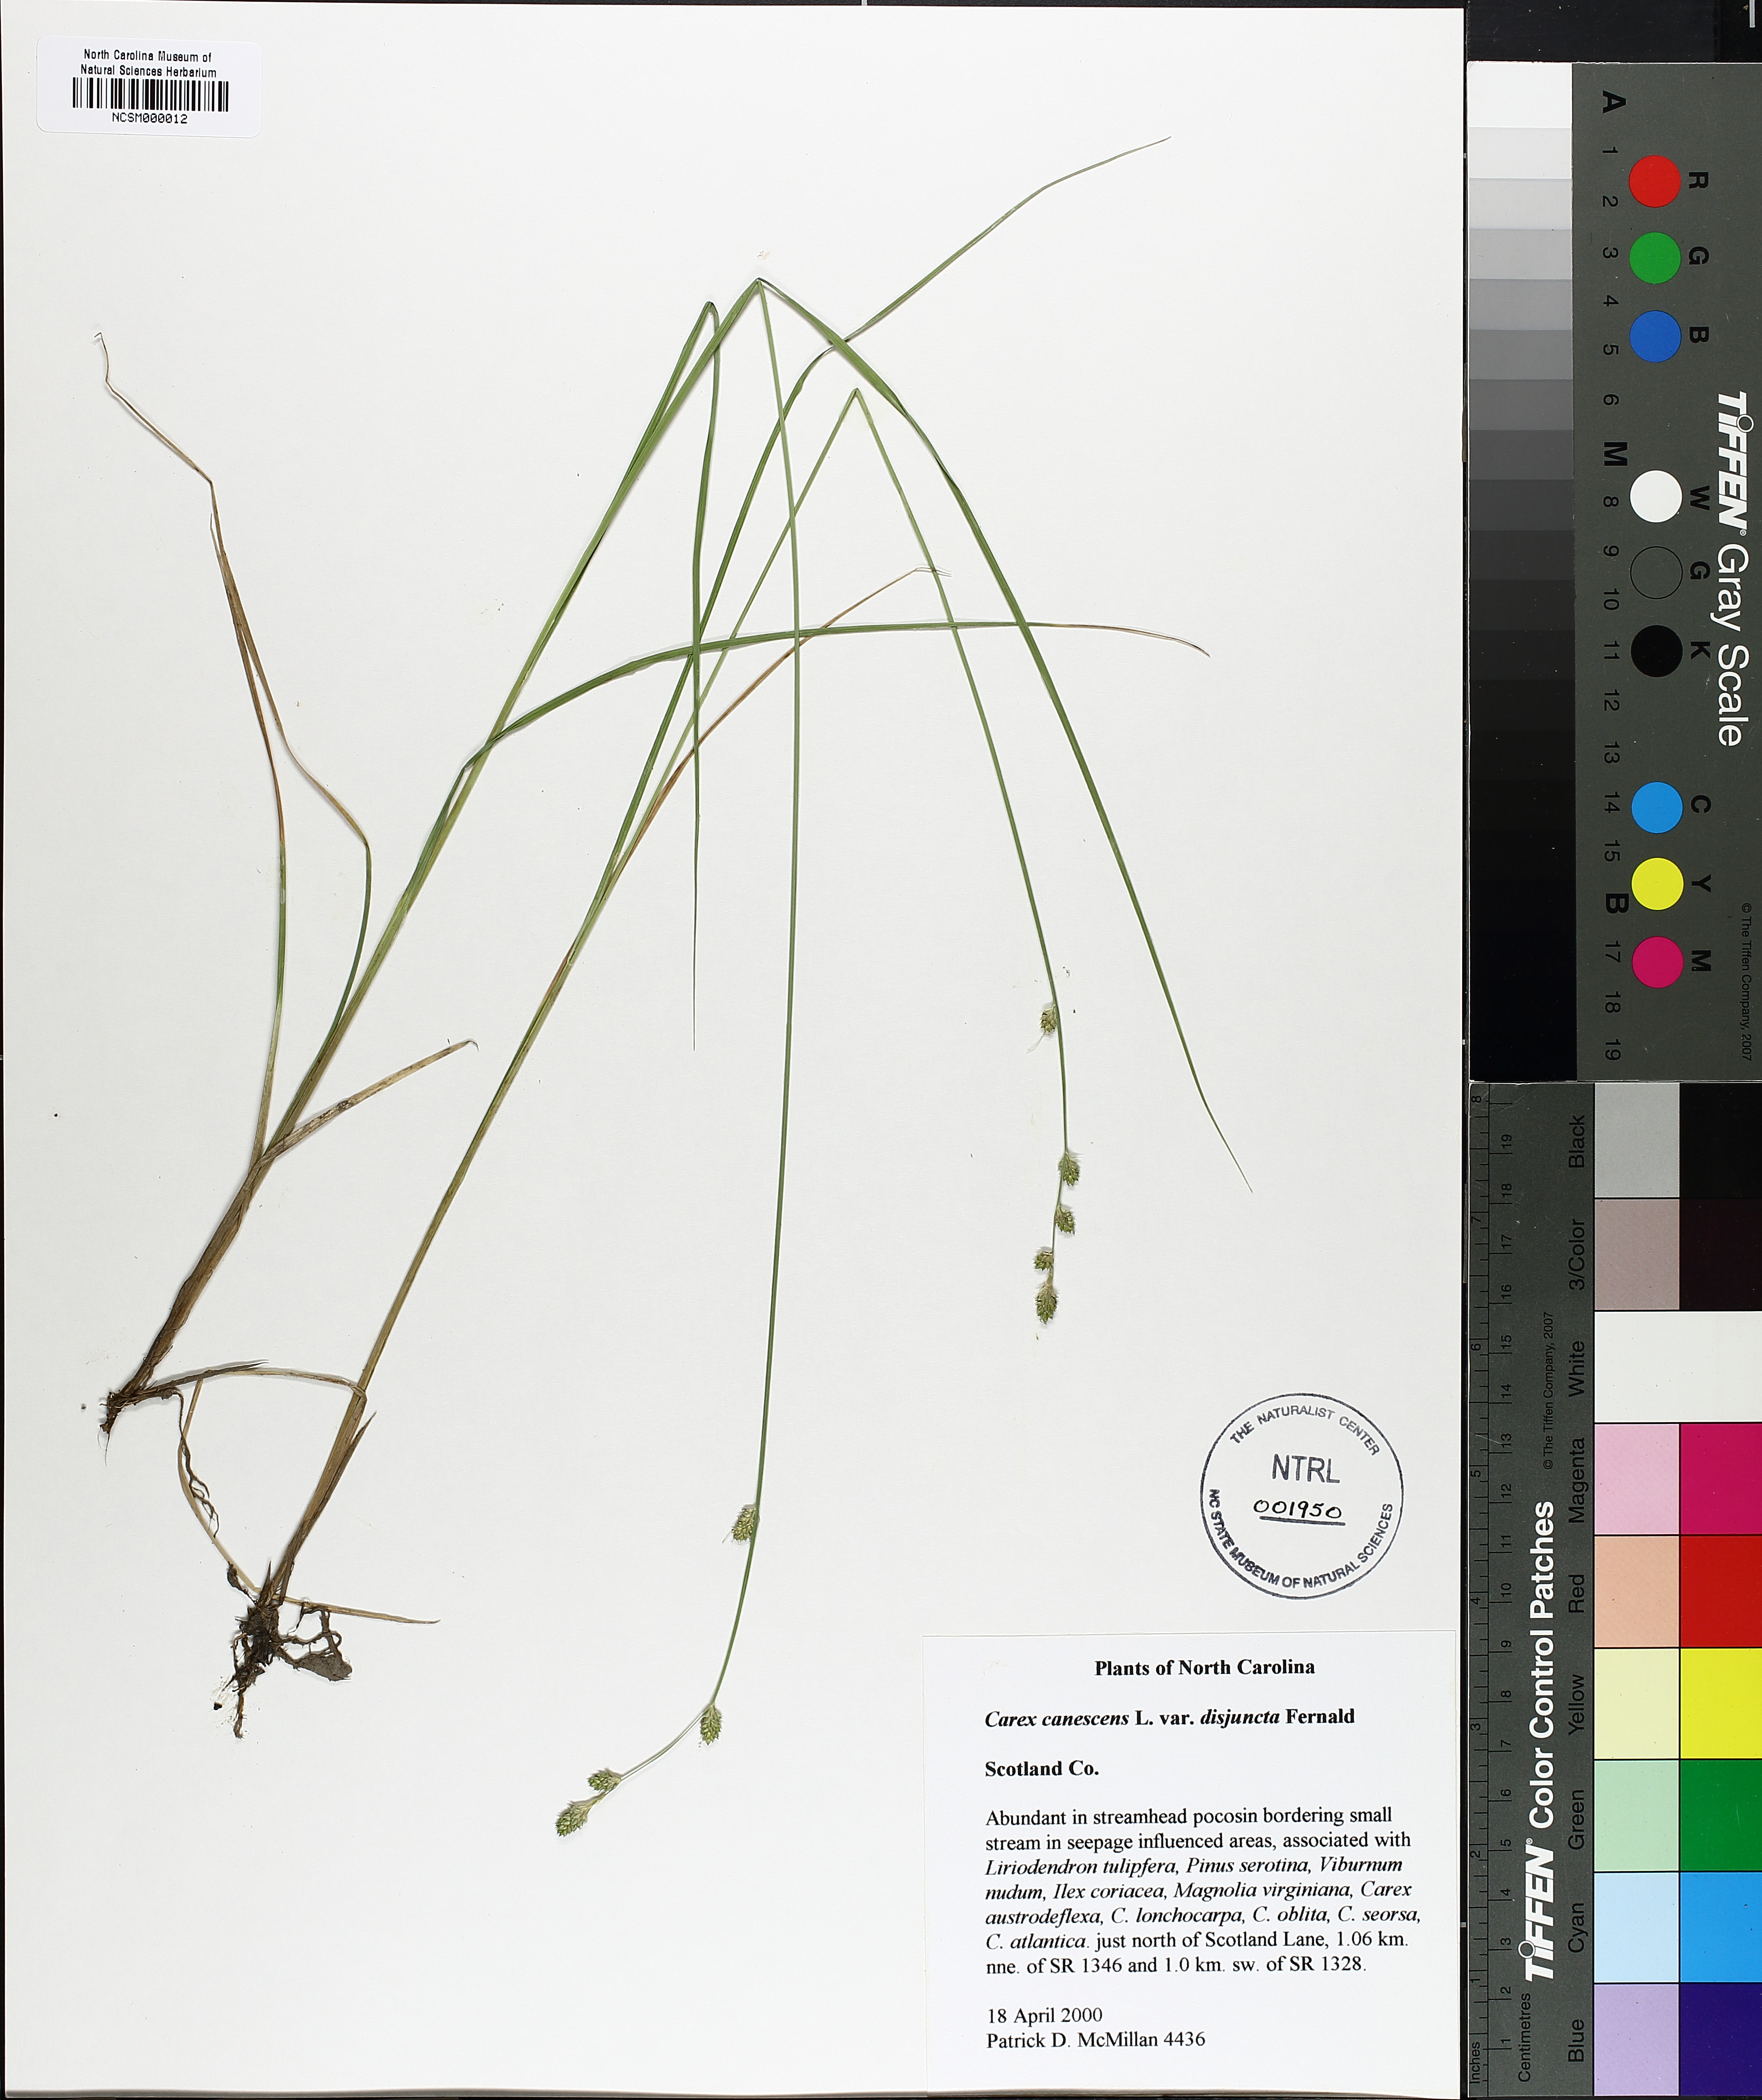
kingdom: Plantae
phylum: Tracheophyta
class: Liliopsida
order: Poales
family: Cyperaceae
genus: Carex
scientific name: Carex canescens
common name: White sedge
